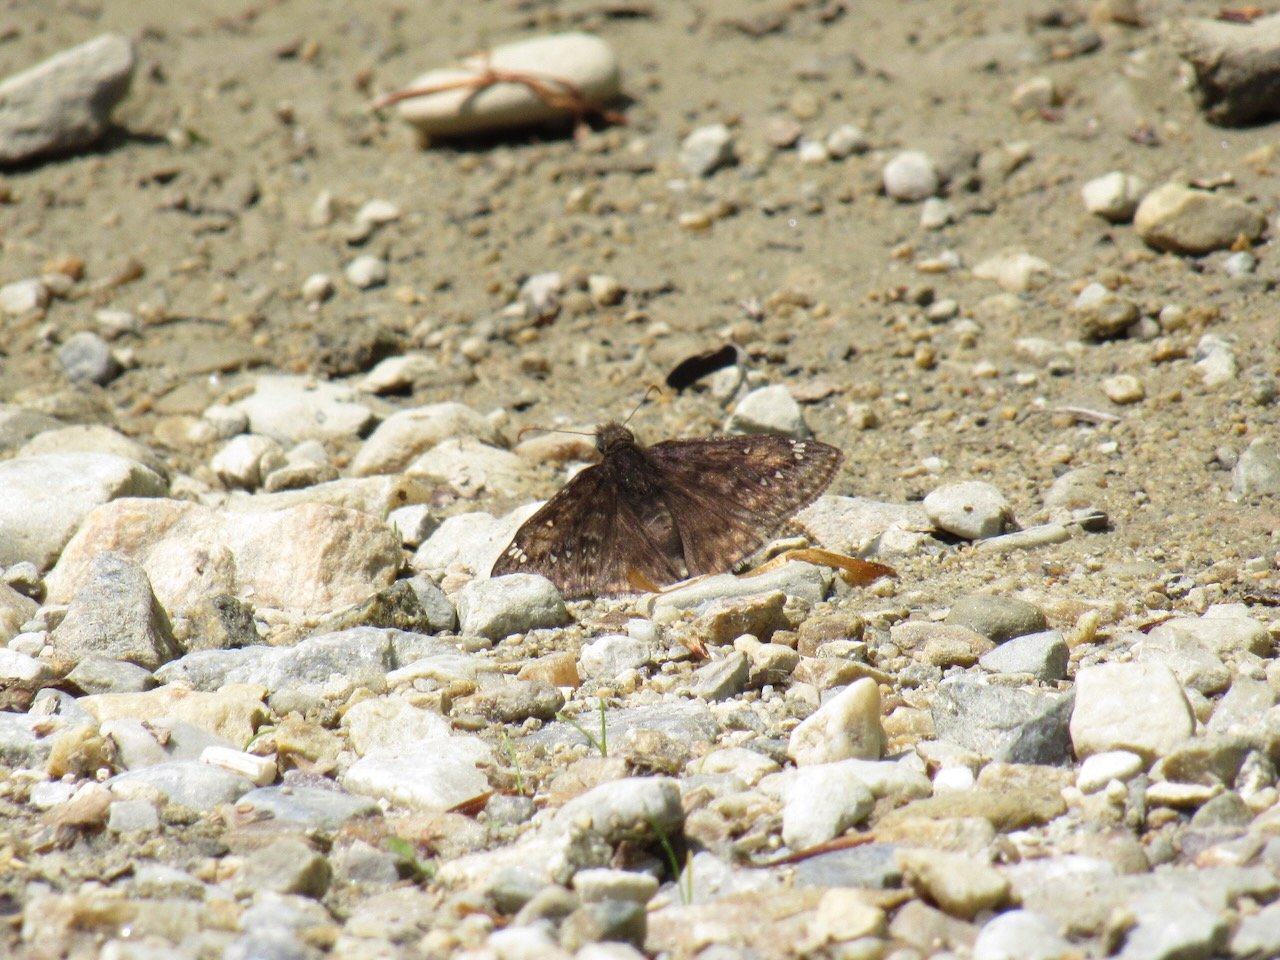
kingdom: Animalia
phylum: Arthropoda
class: Insecta
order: Lepidoptera
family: Hesperiidae
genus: Gesta
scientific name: Gesta
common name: Juvenal's Duskywing
